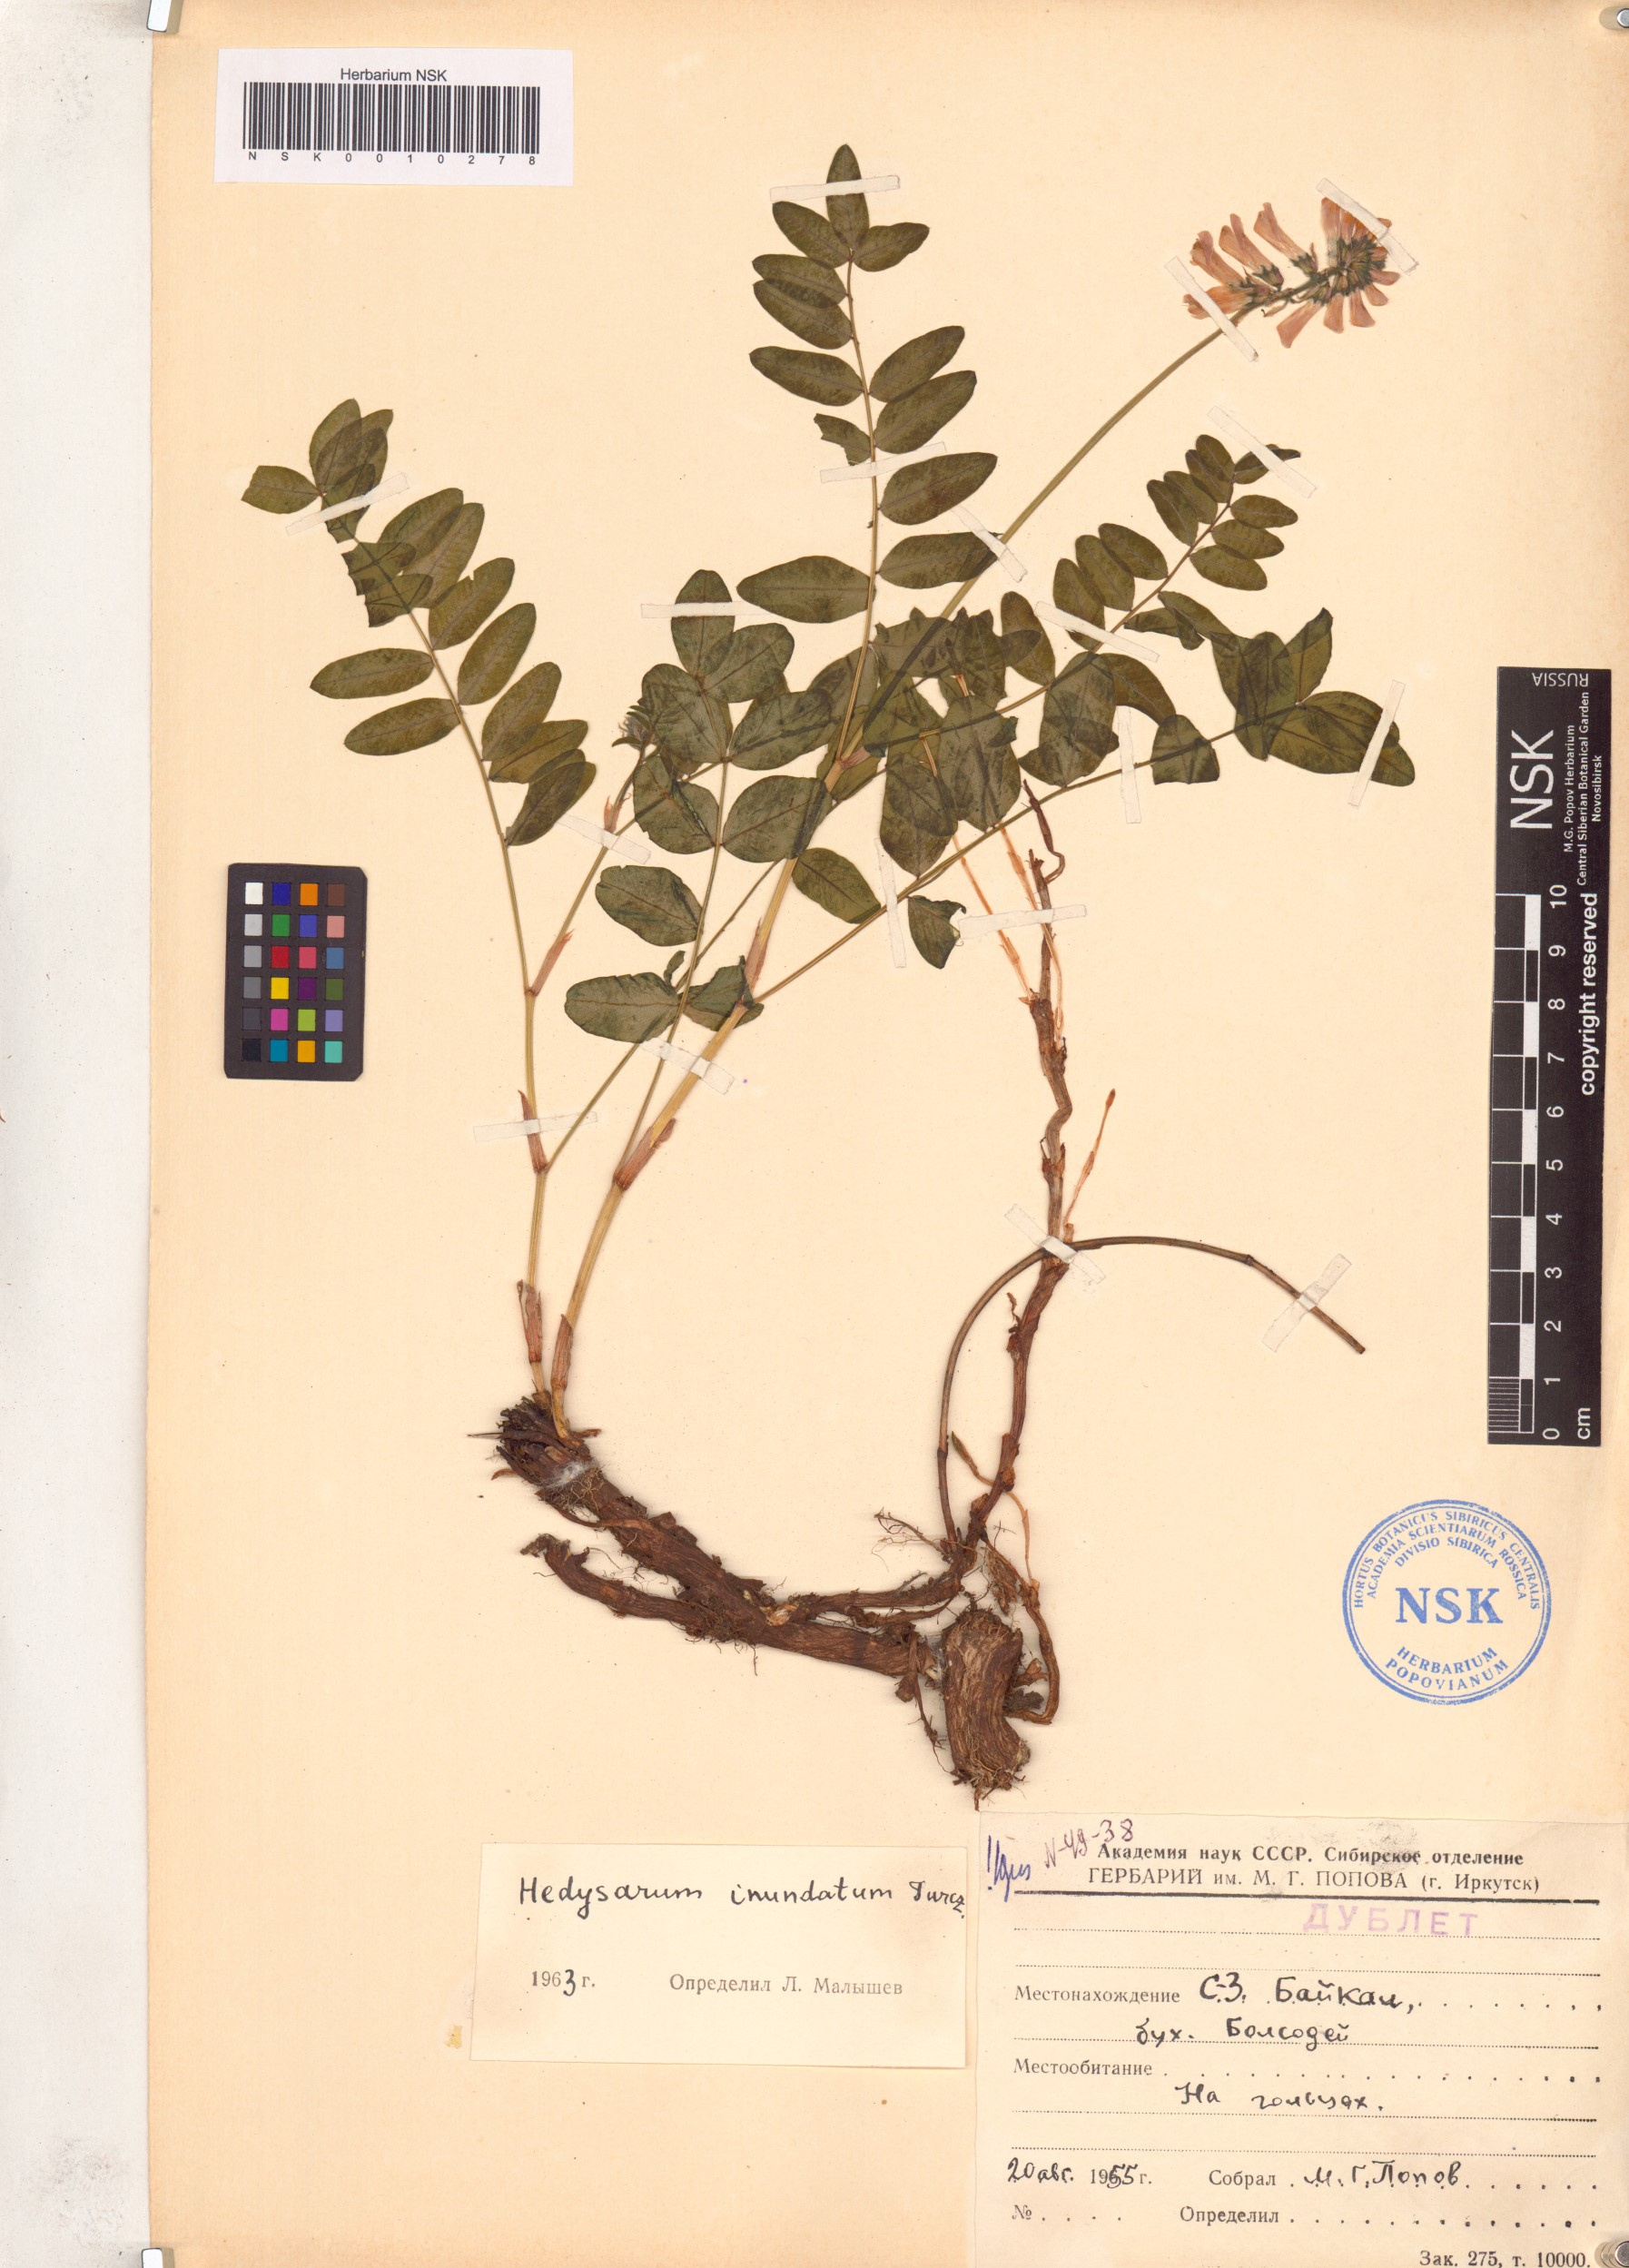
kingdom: Plantae
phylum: Tracheophyta
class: Magnoliopsida
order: Fabales
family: Fabaceae
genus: Hedysarum
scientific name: Hedysarum inundatum
